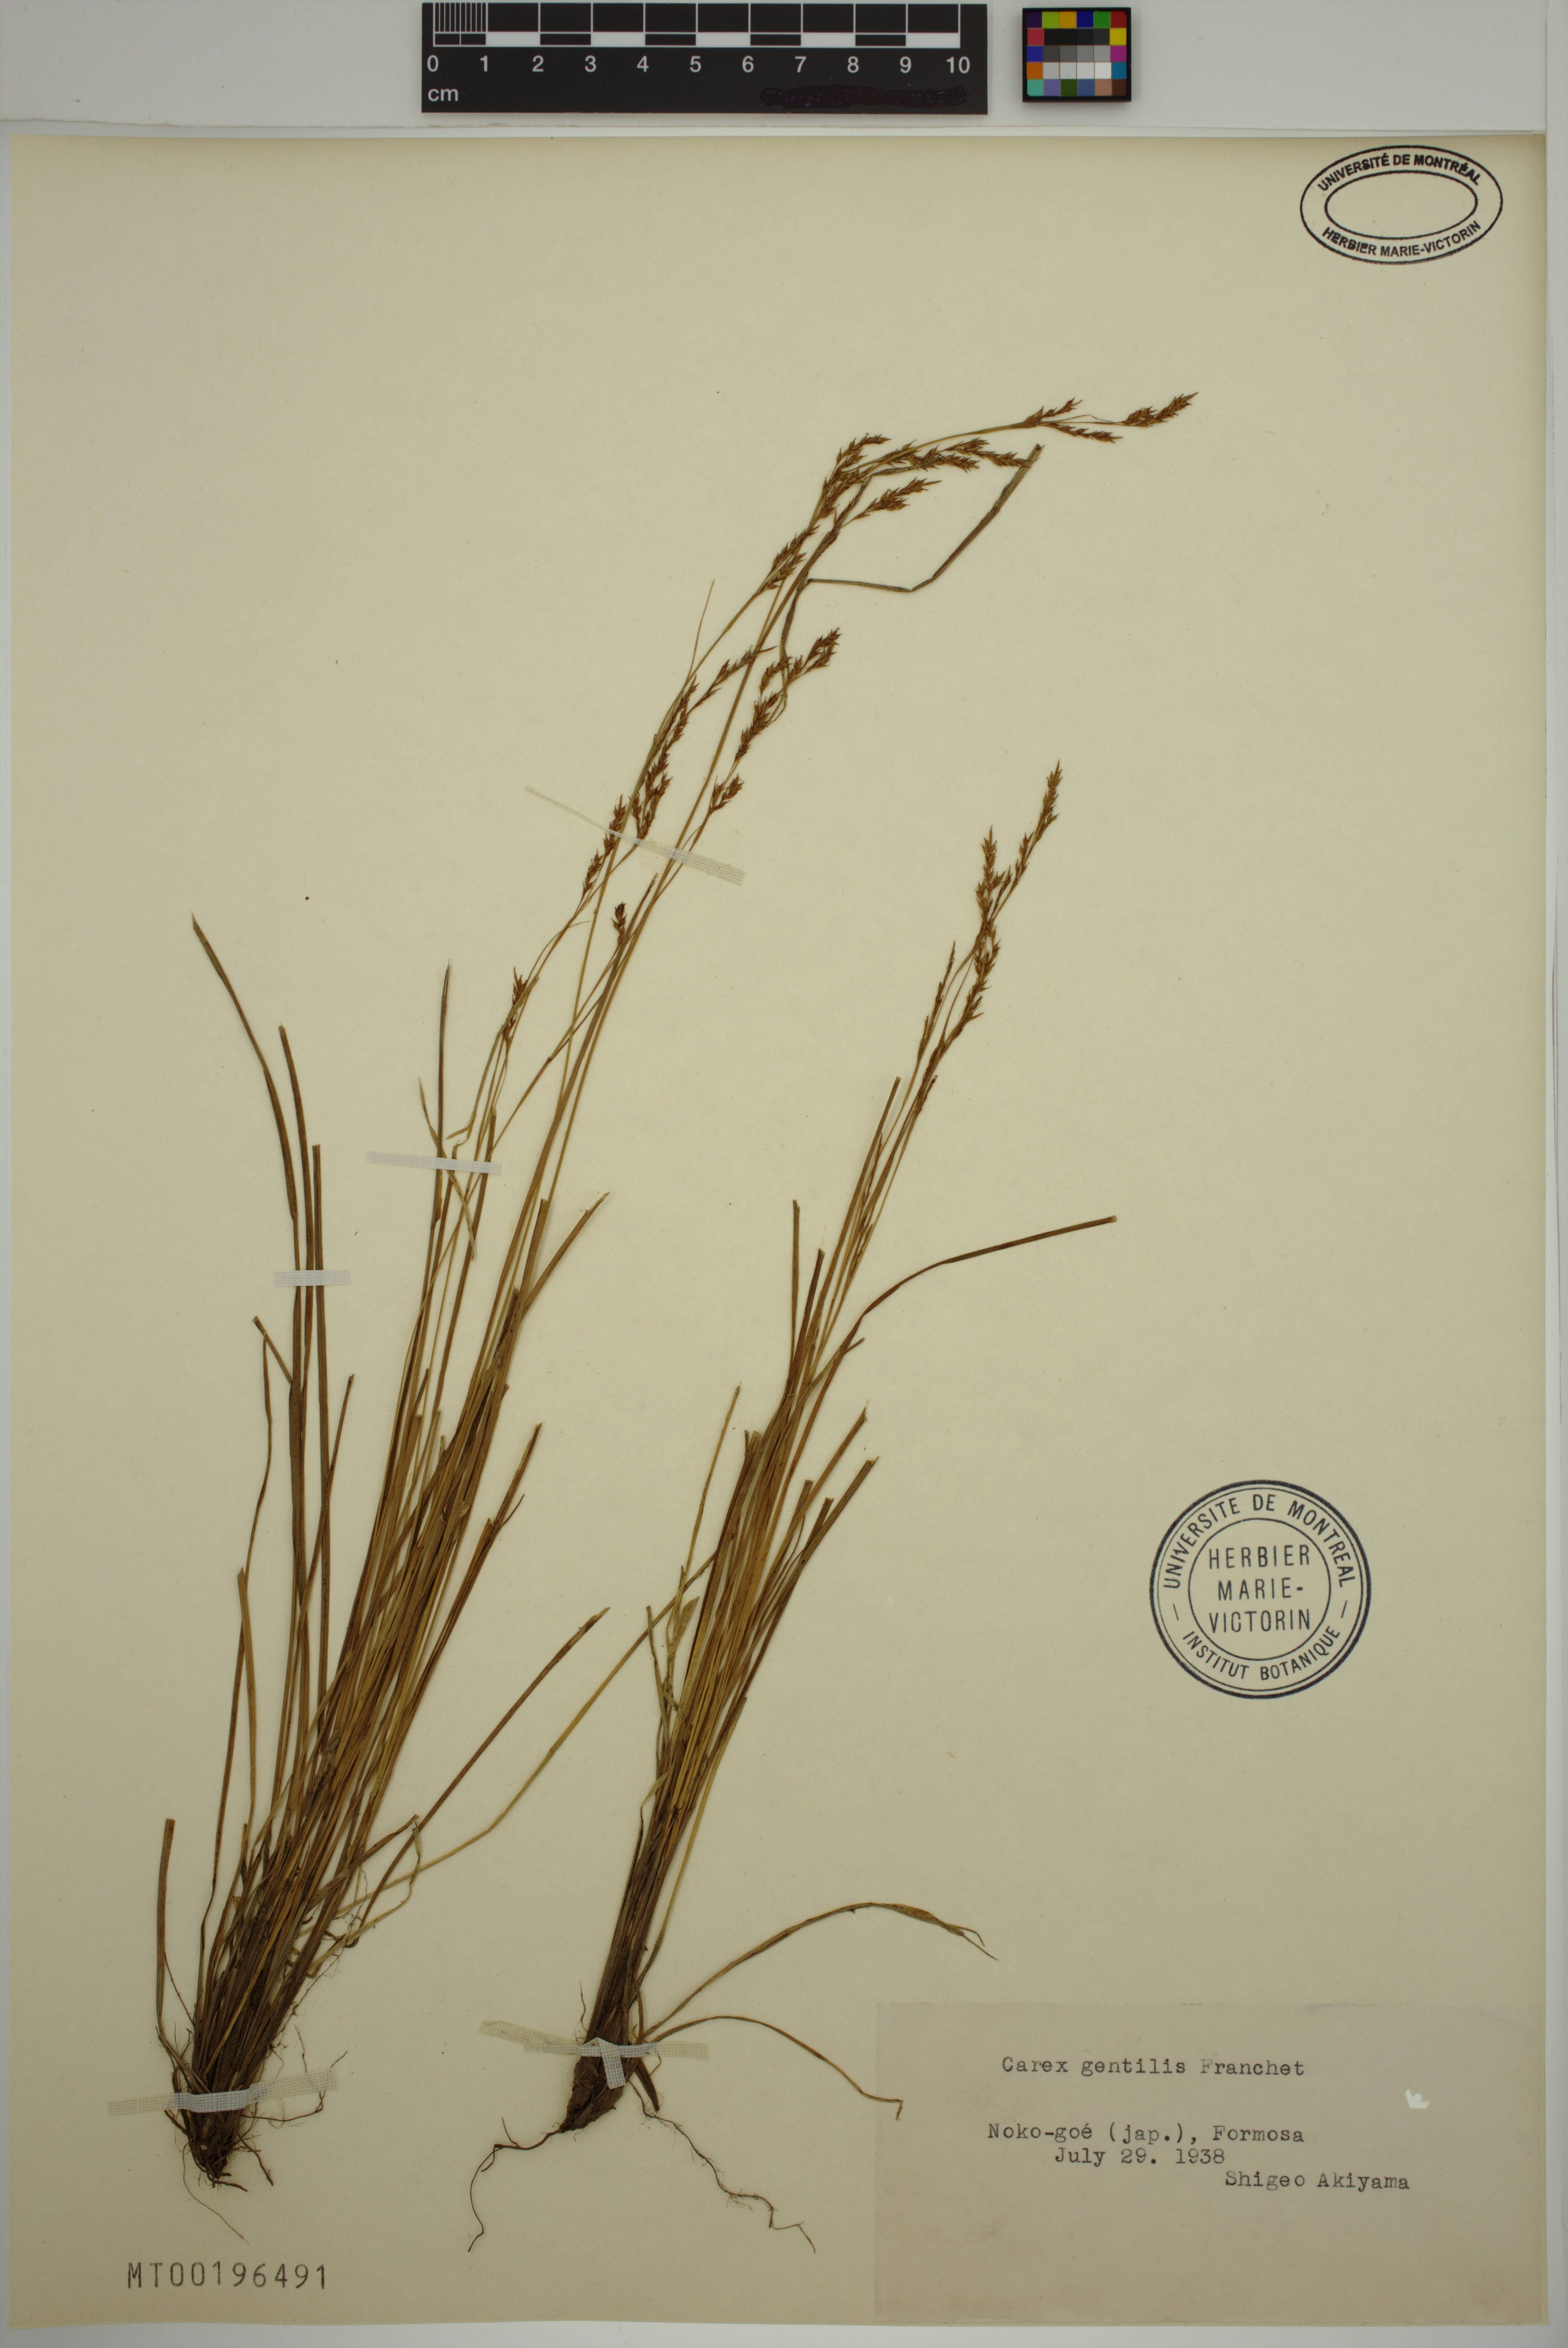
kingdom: Plantae
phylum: Tracheophyta
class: Liliopsida
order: Poales
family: Cyperaceae
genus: Carex
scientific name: Carex gentilis
